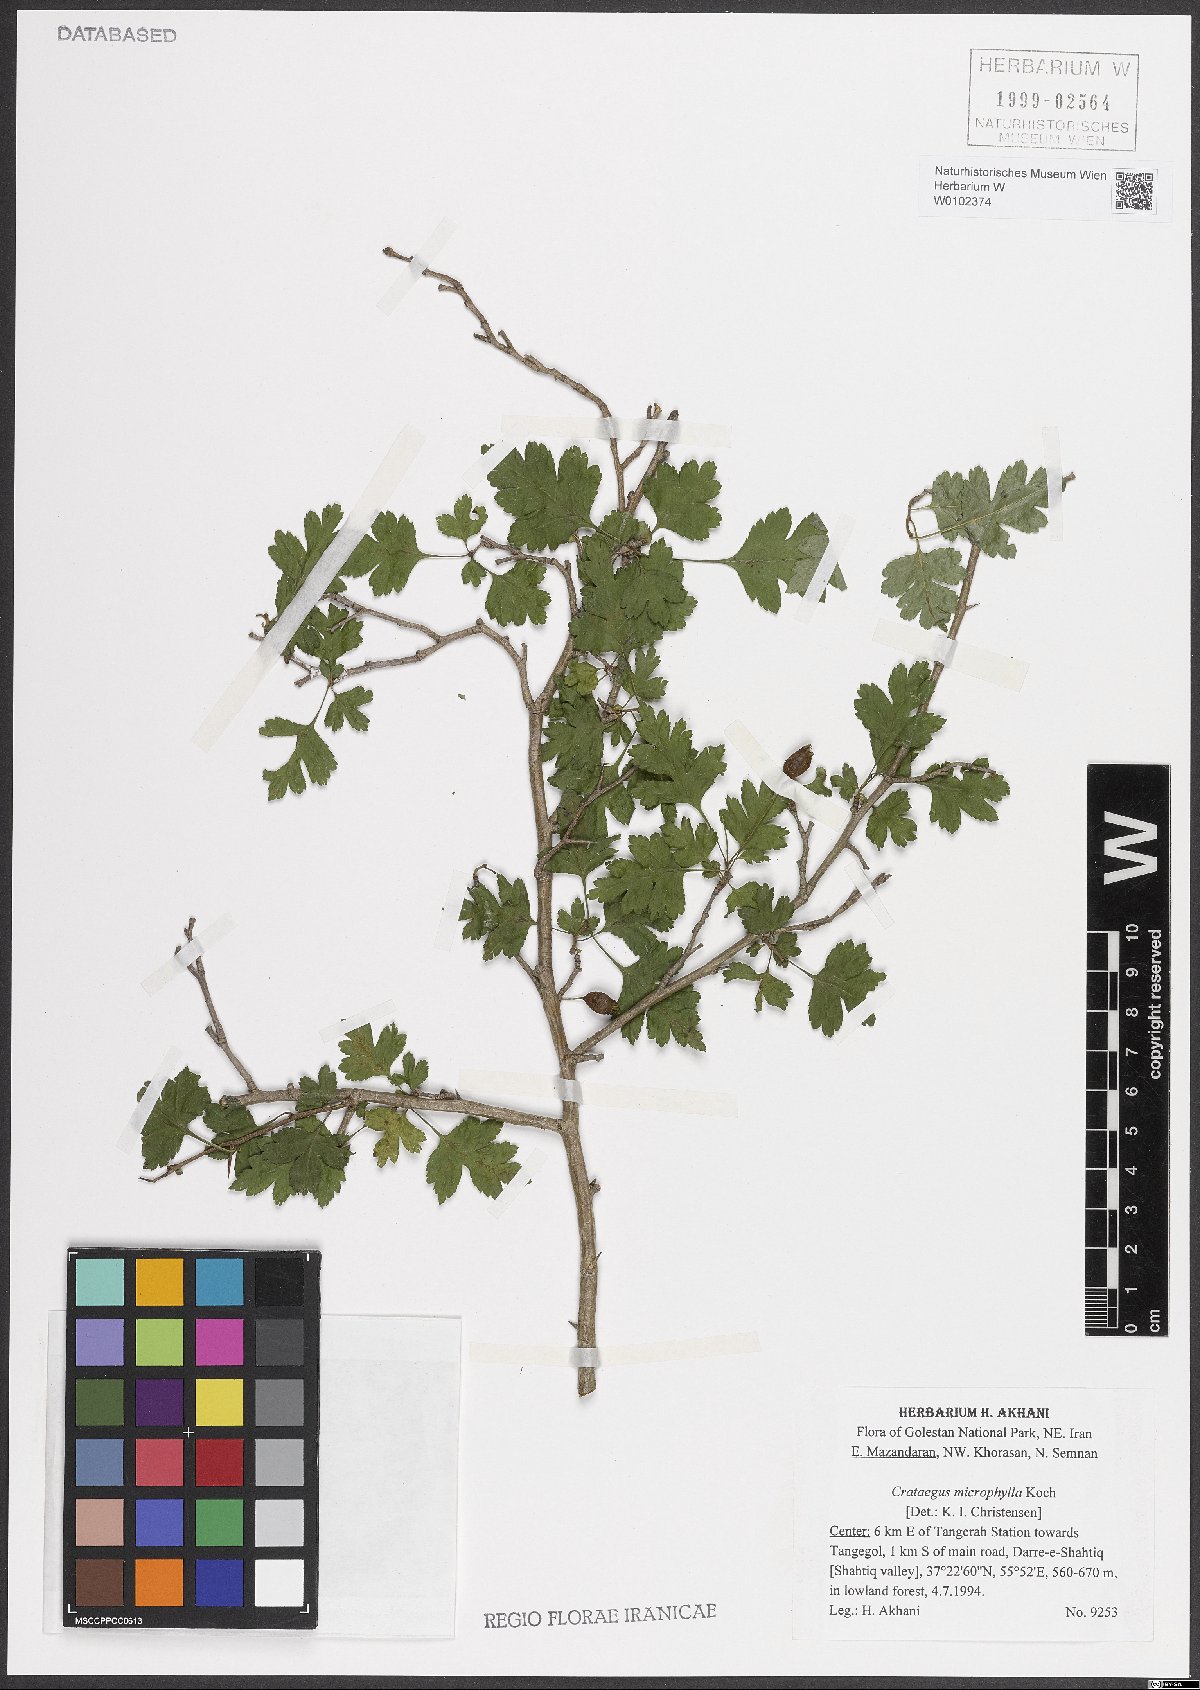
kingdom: Plantae
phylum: Tracheophyta
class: Magnoliopsida
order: Rosales
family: Rosaceae
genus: Crataegus
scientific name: Crataegus microphylla
